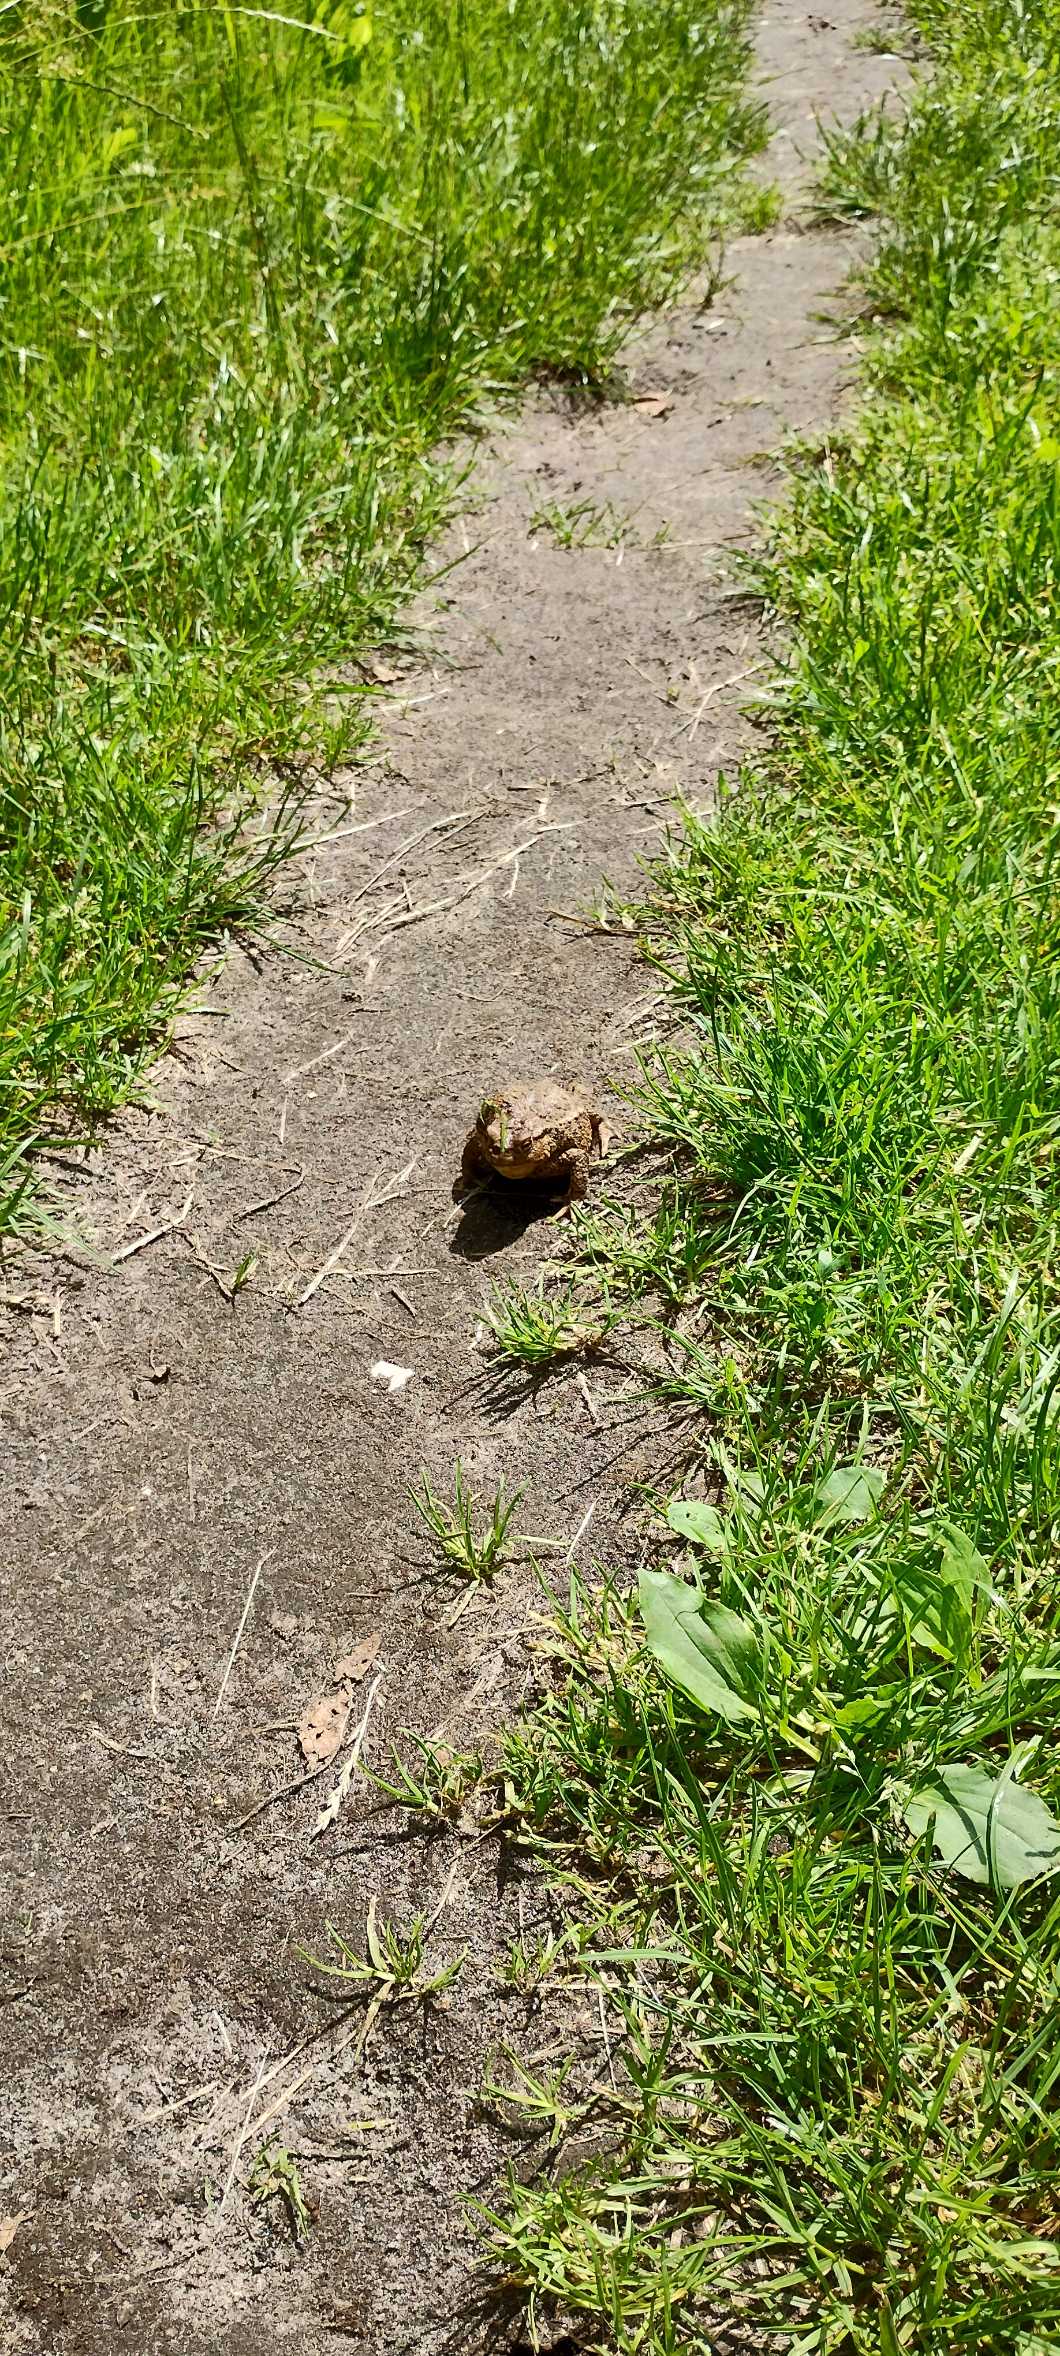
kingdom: Animalia
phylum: Chordata
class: Amphibia
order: Anura
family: Bufonidae
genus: Bufo
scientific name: Bufo bufo
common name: Skrubtudse
